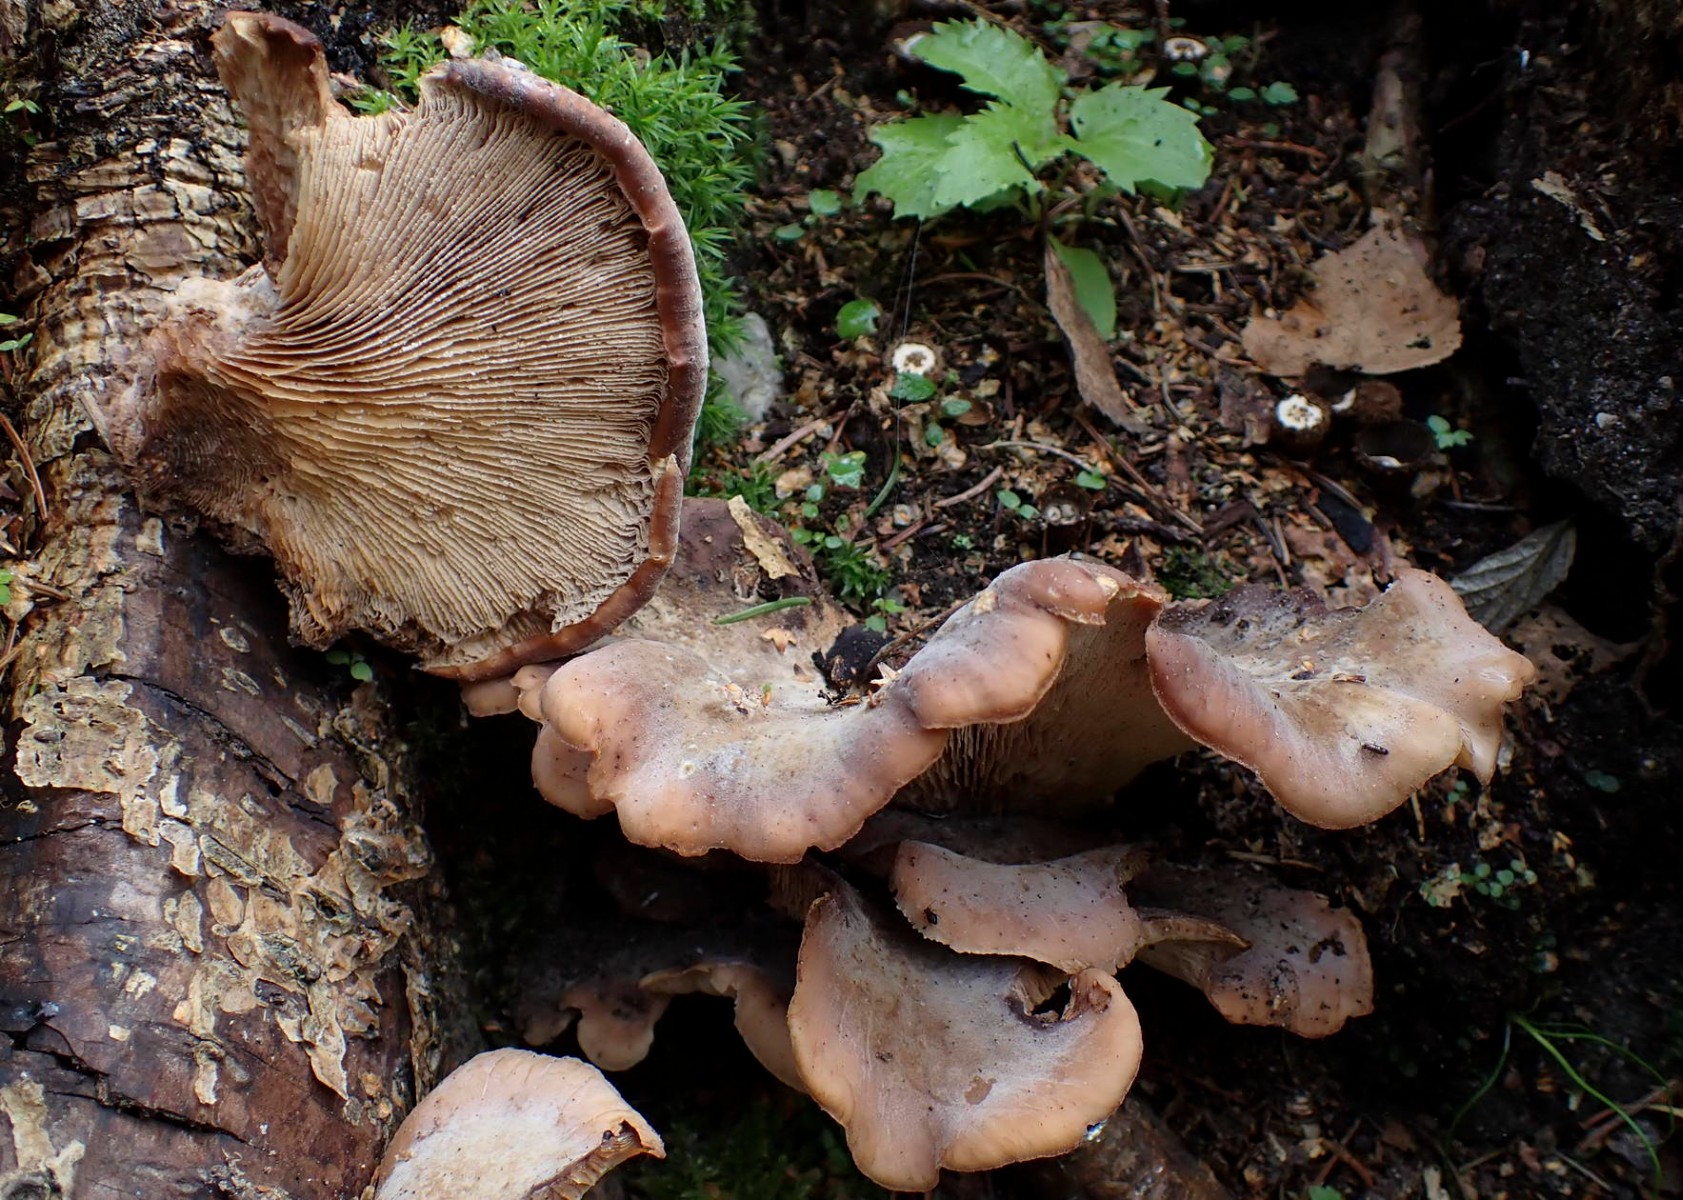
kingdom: Fungi
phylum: Basidiomycota
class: Agaricomycetes
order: Russulales
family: Auriscalpiaceae
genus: Lentinellus
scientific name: Lentinellus ursinus
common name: børstehåret savbladhat
